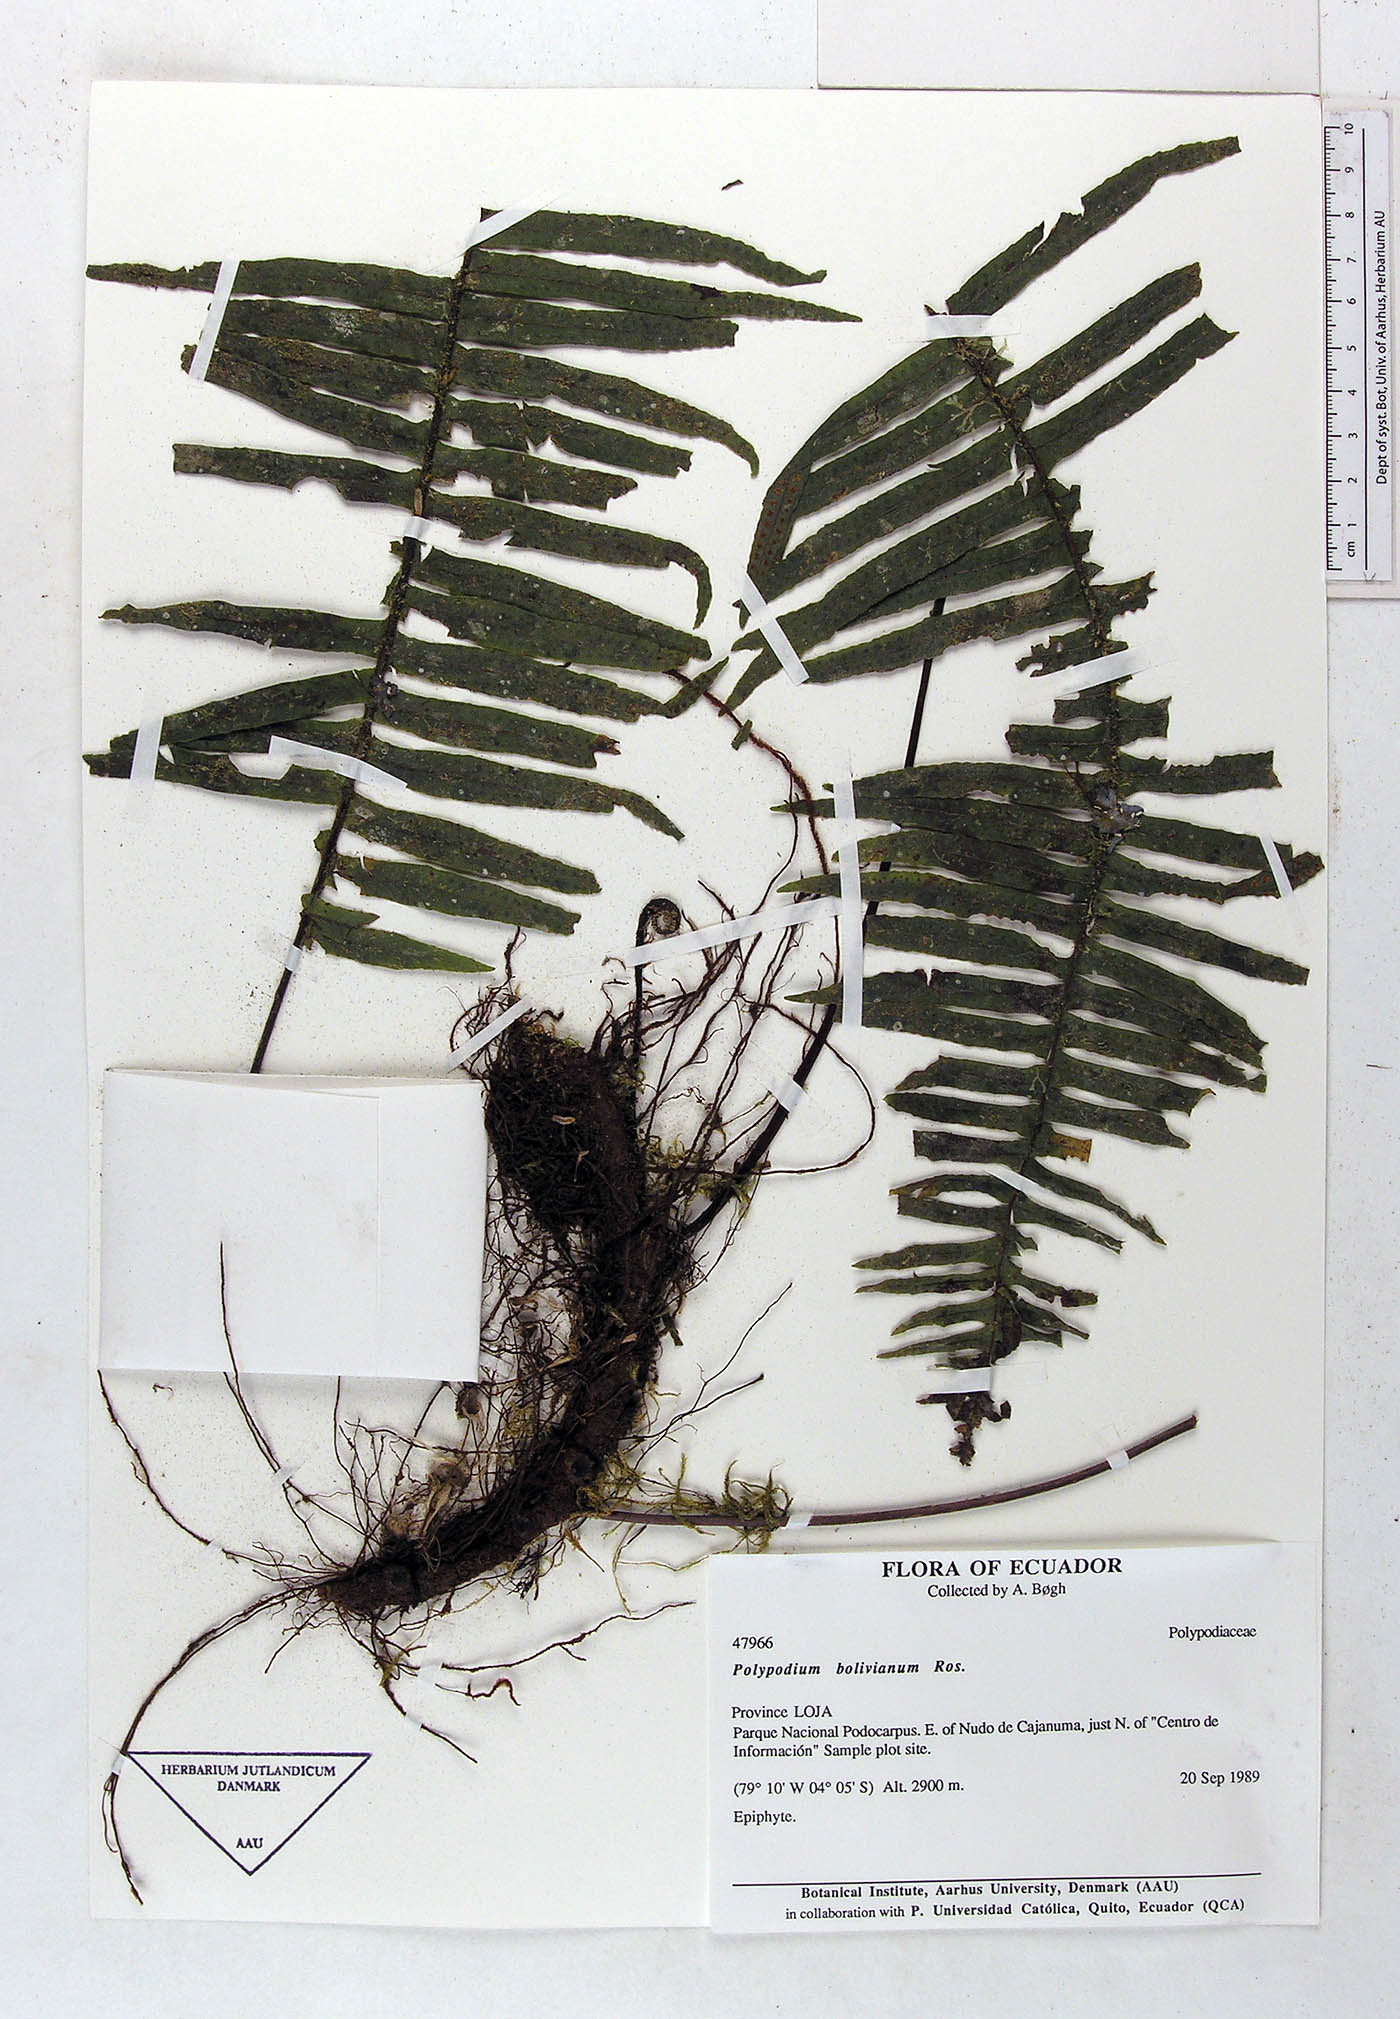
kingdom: Plantae
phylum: Tracheophyta
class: Polypodiopsida
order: Polypodiales
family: Polypodiaceae
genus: Pecluma
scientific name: Pecluma divaricata
